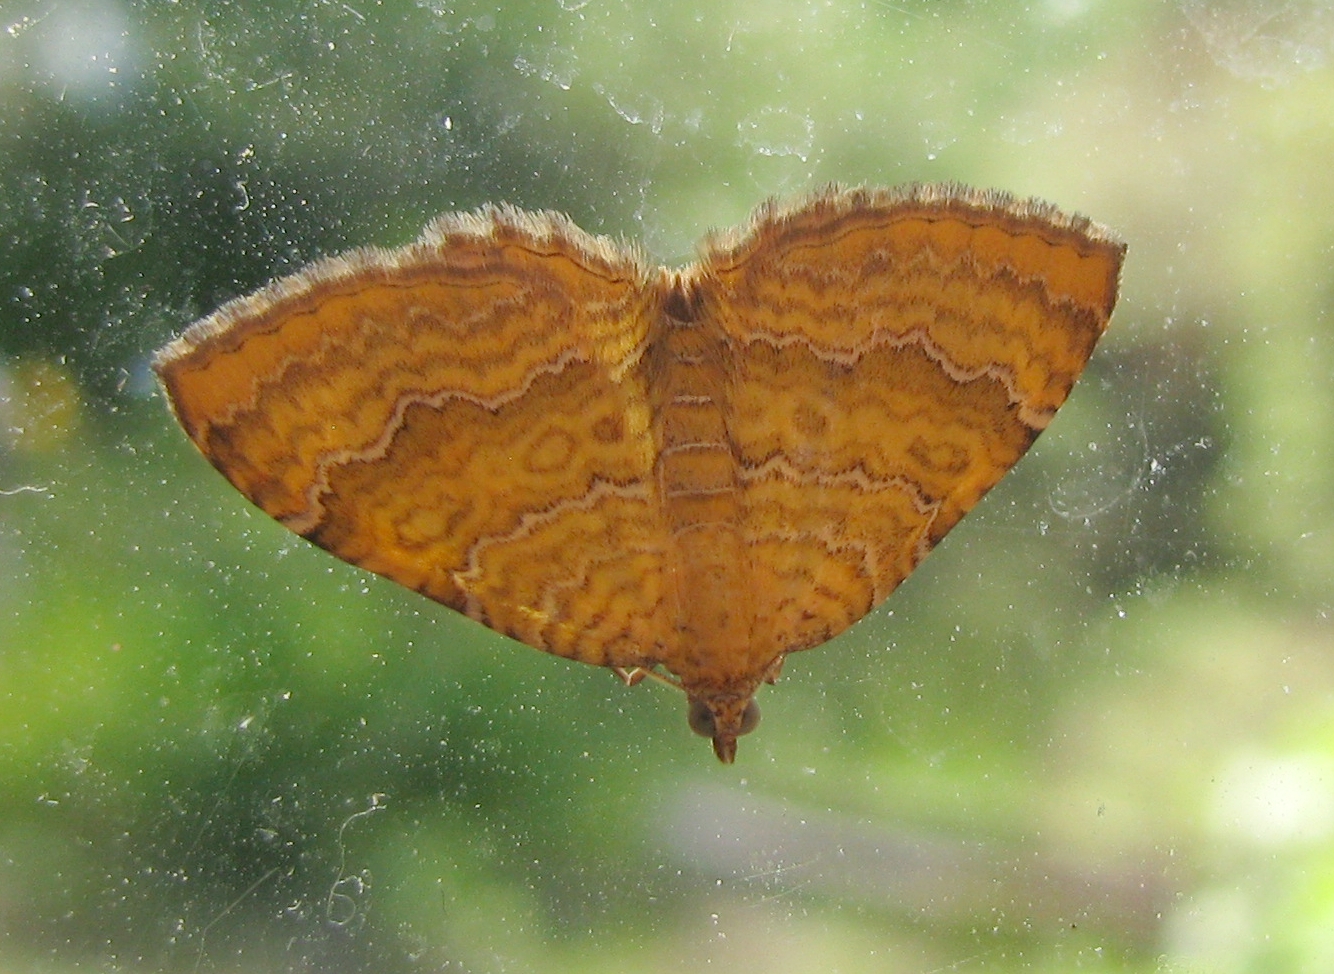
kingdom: Animalia
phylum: Arthropoda
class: Insecta
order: Lepidoptera
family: Geometridae
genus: Camptogramma
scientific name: Camptogramma bilineata
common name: Yellow shell
